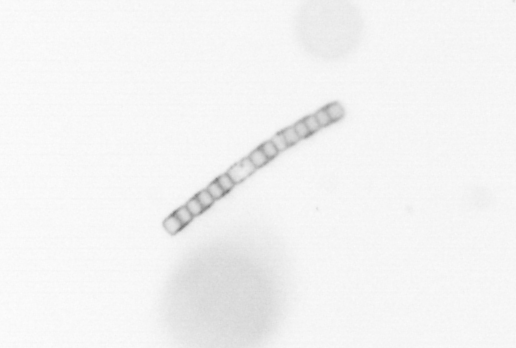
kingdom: Chromista
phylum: Ochrophyta
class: Bacillariophyceae
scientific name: Bacillariophyceae
